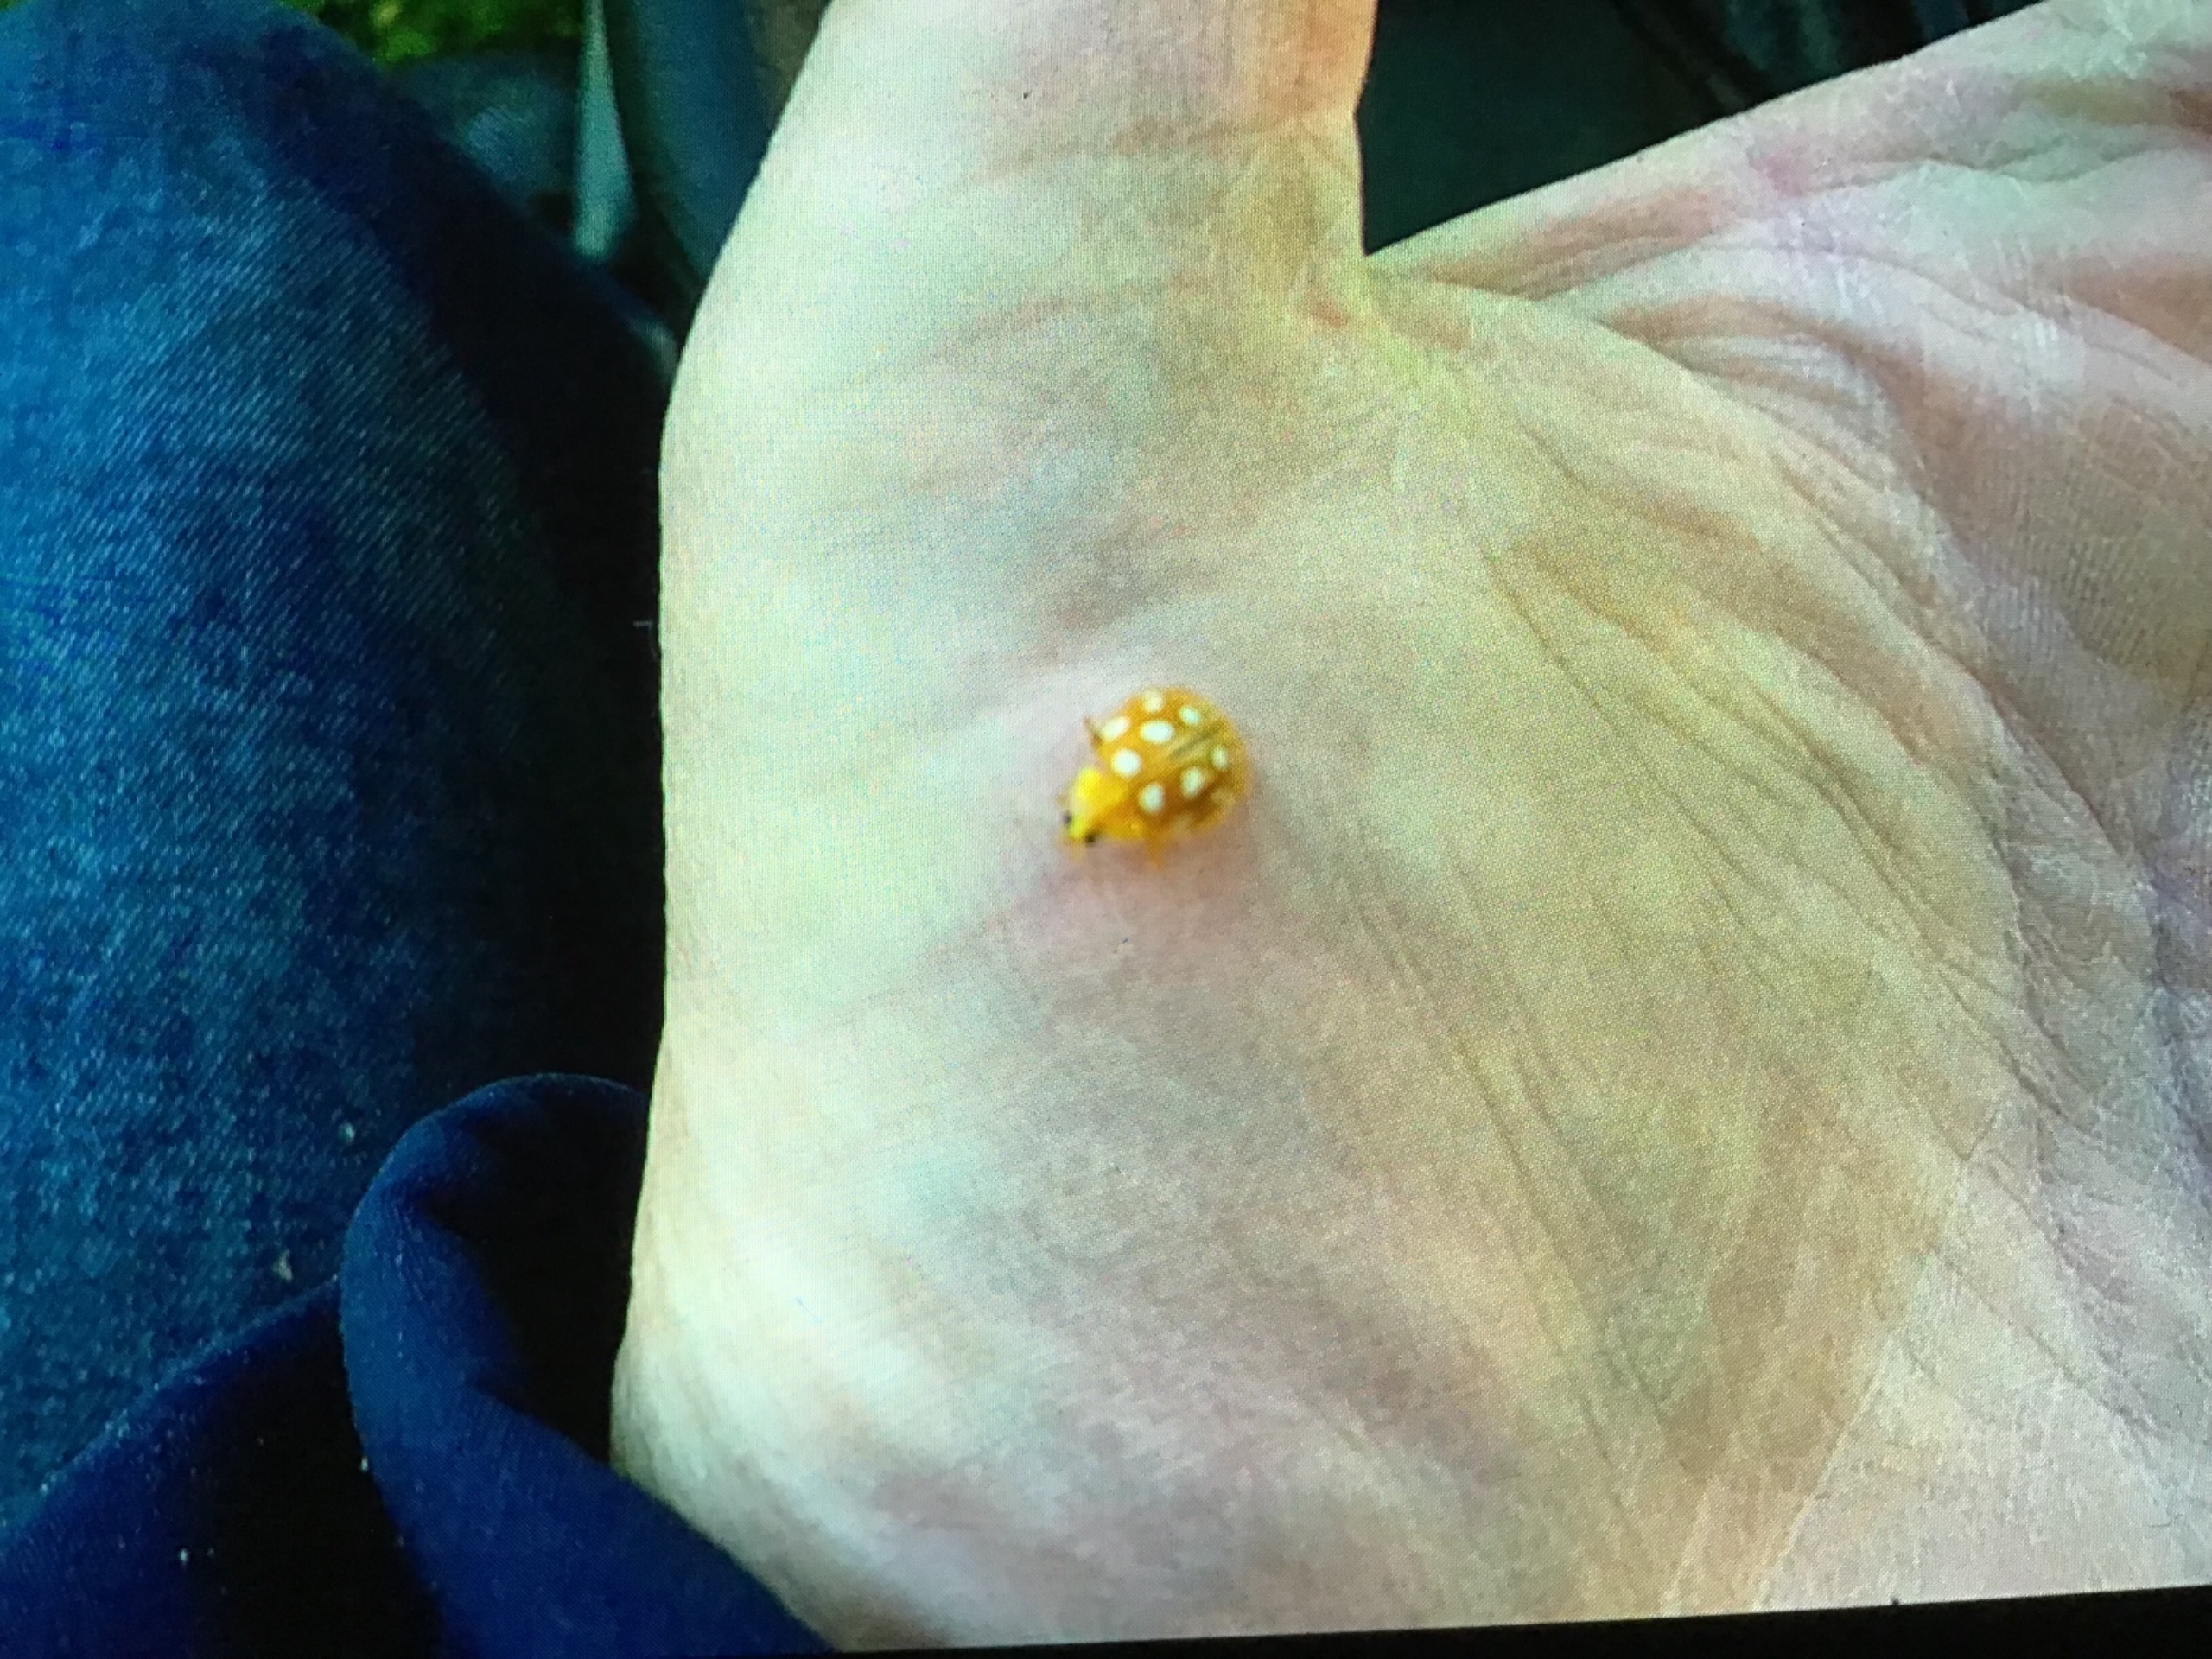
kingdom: Animalia
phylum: Arthropoda
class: Insecta
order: Coleoptera
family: Coccinellidae
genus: Halyzia
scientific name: Halyzia sedecimguttata
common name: Sekstenplettet mariehøne
